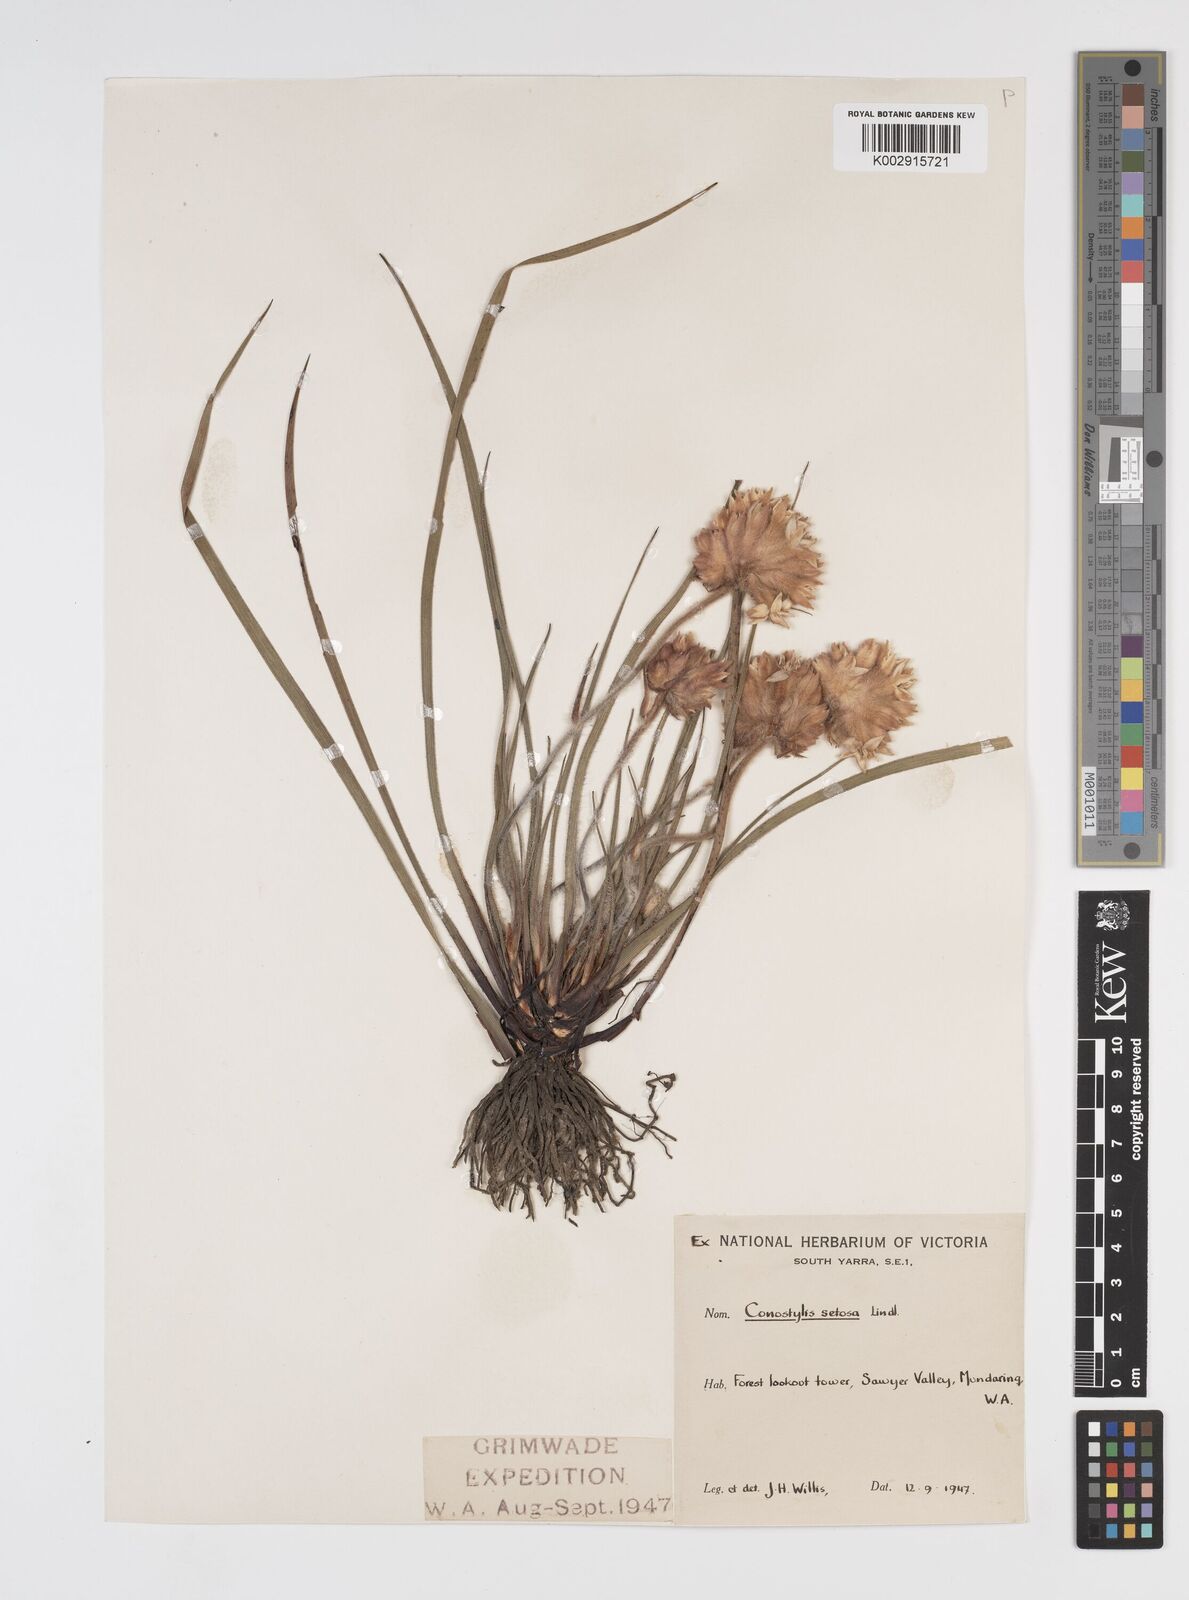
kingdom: Plantae
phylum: Tracheophyta
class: Liliopsida
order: Commelinales
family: Haemodoraceae
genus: Conostylis
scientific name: Conostylis setosa
